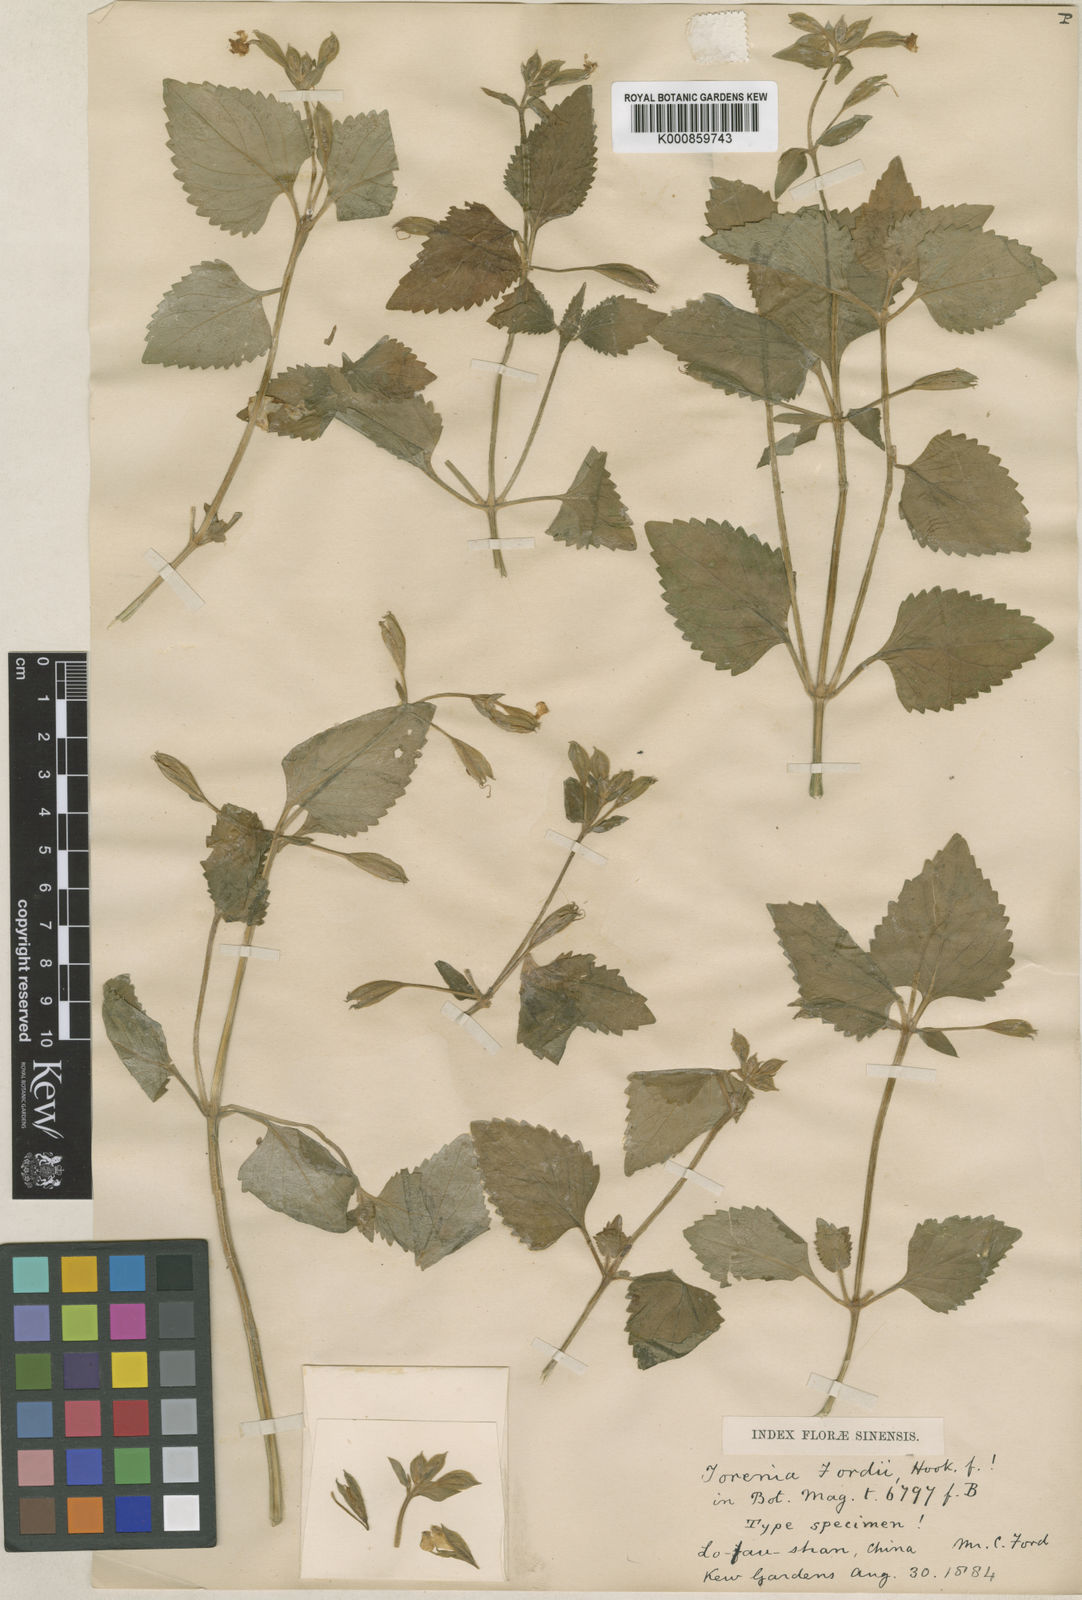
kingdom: Plantae
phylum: Tracheophyta
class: Magnoliopsida
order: Lamiales
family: Linderniaceae
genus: Torenia
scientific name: Torenia fordii
